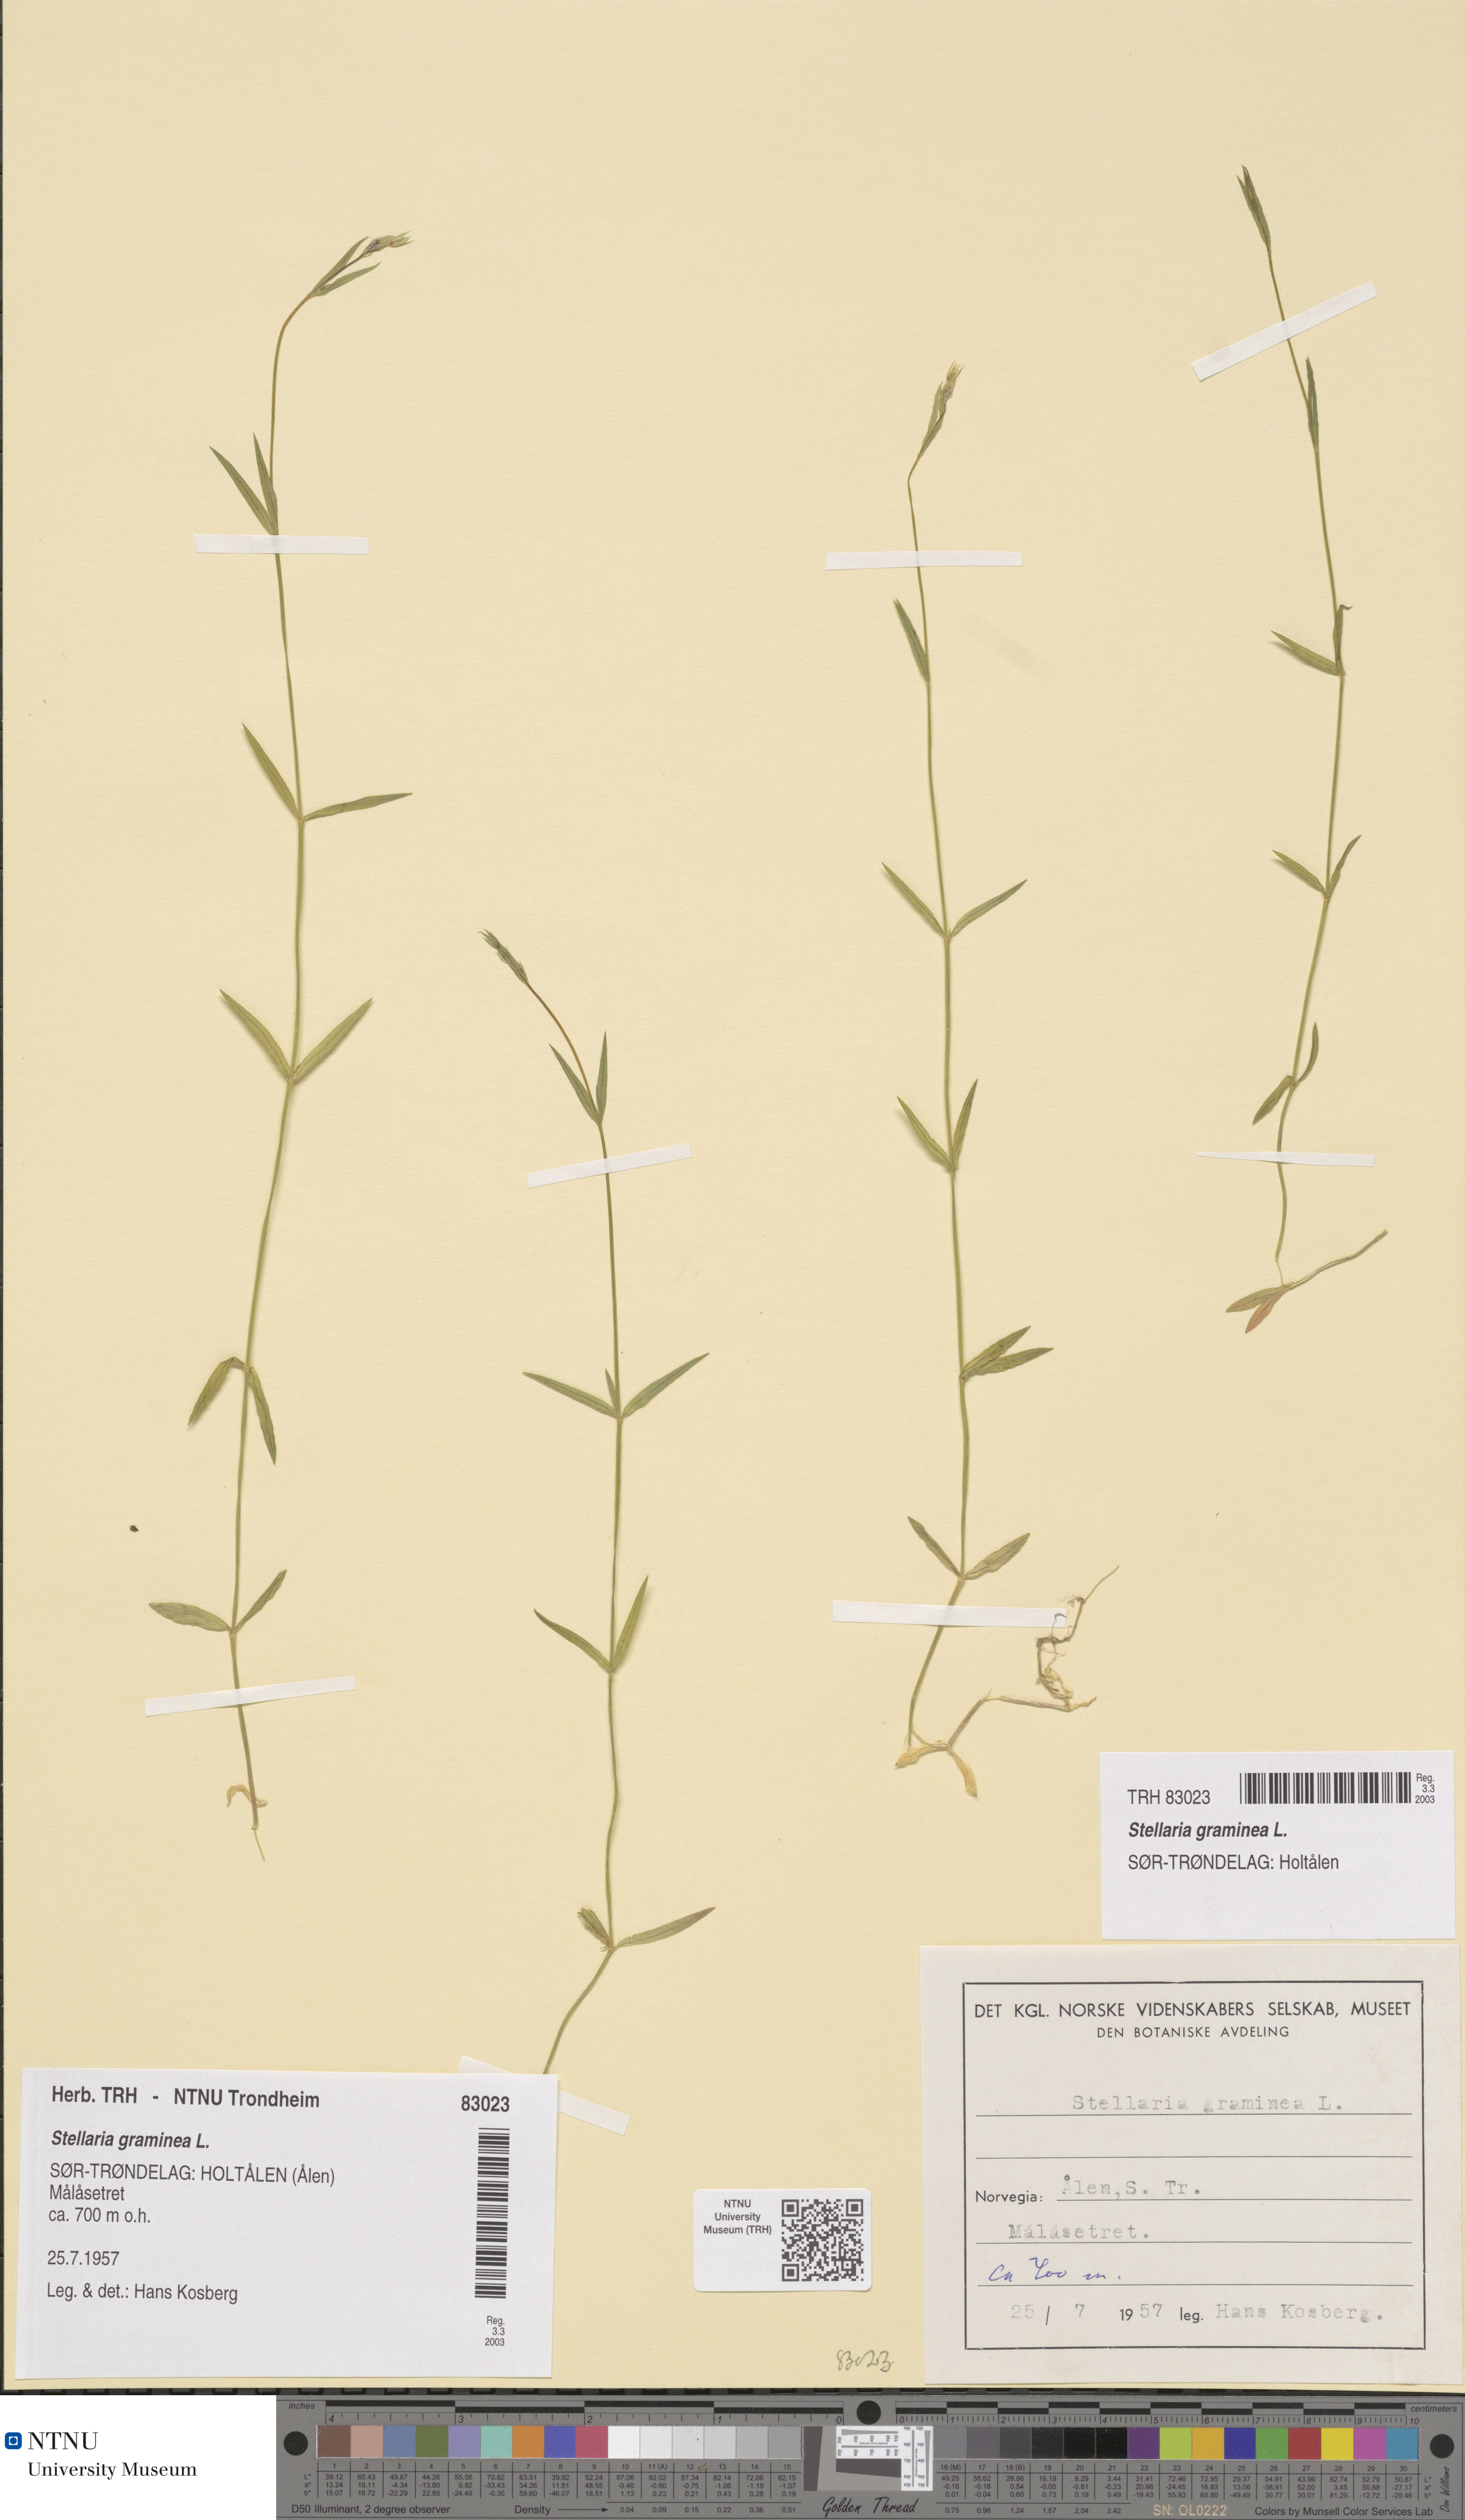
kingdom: Plantae
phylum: Tracheophyta
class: Magnoliopsida
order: Caryophyllales
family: Caryophyllaceae
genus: Stellaria
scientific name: Stellaria graminea
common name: Grass-like starwort
